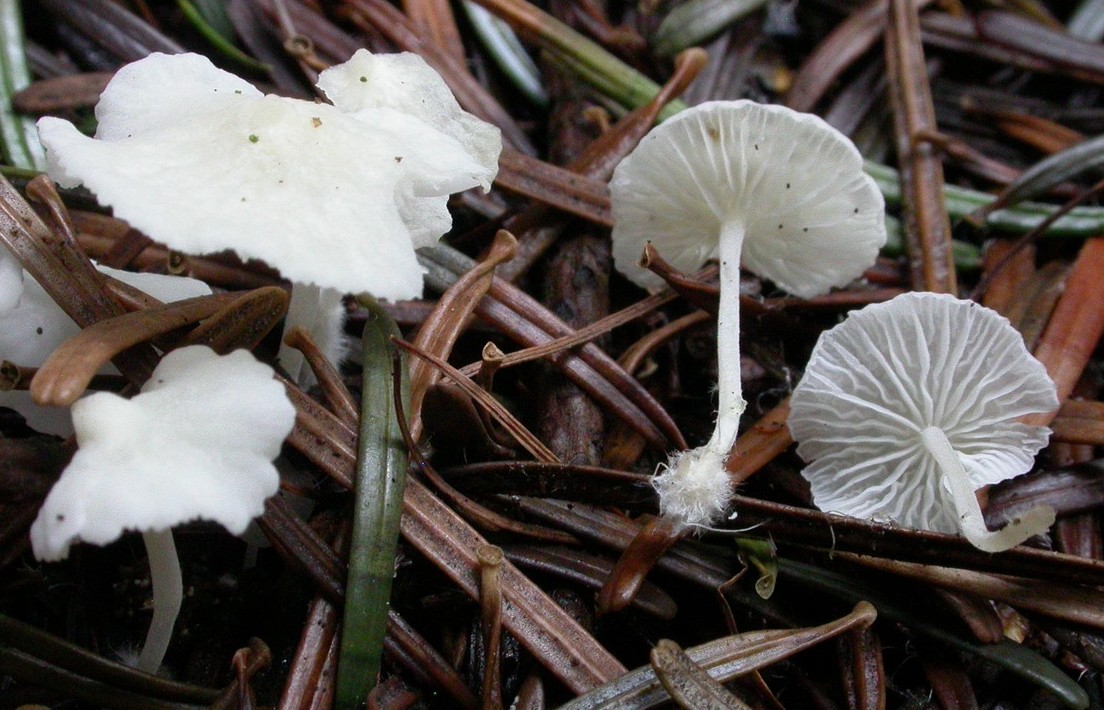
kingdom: Fungi
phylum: Basidiomycota
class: Agaricomycetes
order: Agaricales
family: Mycenaceae
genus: Hemimycena
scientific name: Hemimycena lactea
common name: mælkehvid huesvamp
